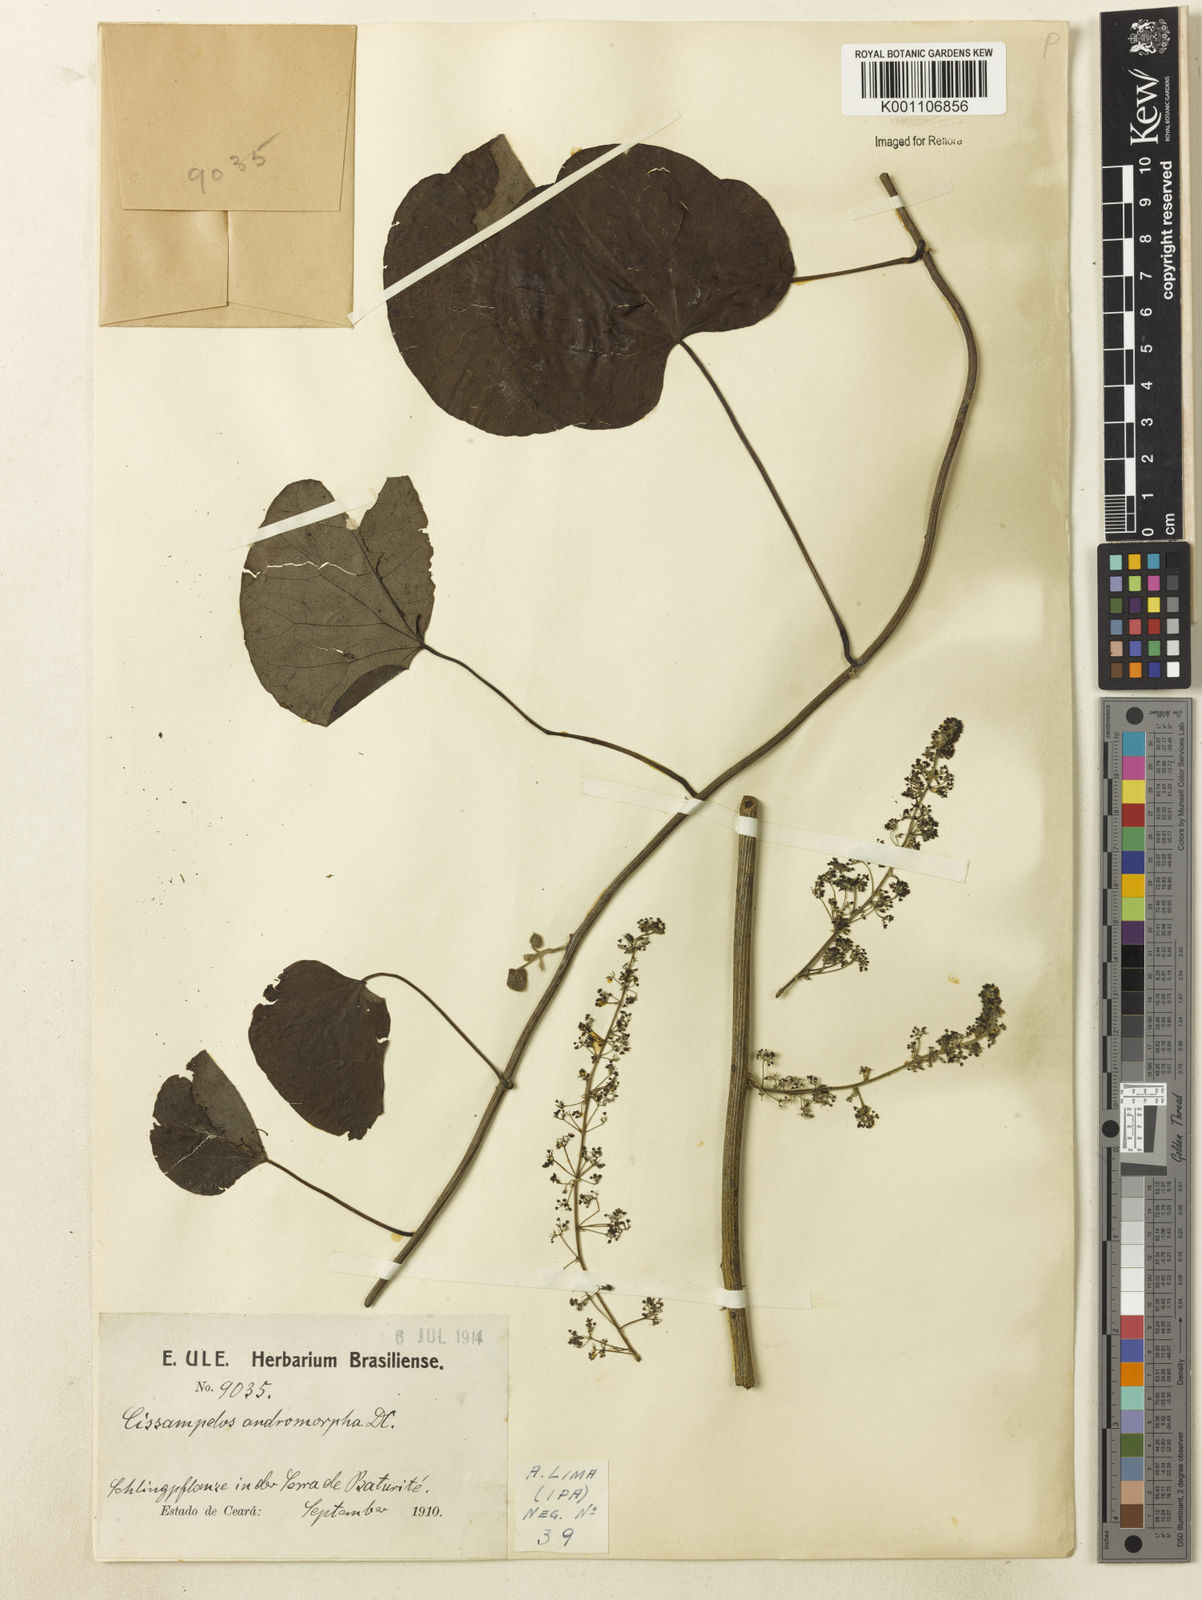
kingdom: Plantae
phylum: Tracheophyta
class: Magnoliopsida
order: Ranunculales
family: Menispermaceae
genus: Cissampelos
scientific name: Cissampelos andromorpha
